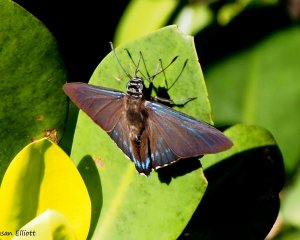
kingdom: Animalia
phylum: Arthropoda
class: Insecta
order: Lepidoptera
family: Hesperiidae
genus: Phocides
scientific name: Phocides pigmalion
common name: Mangrove Skipper
